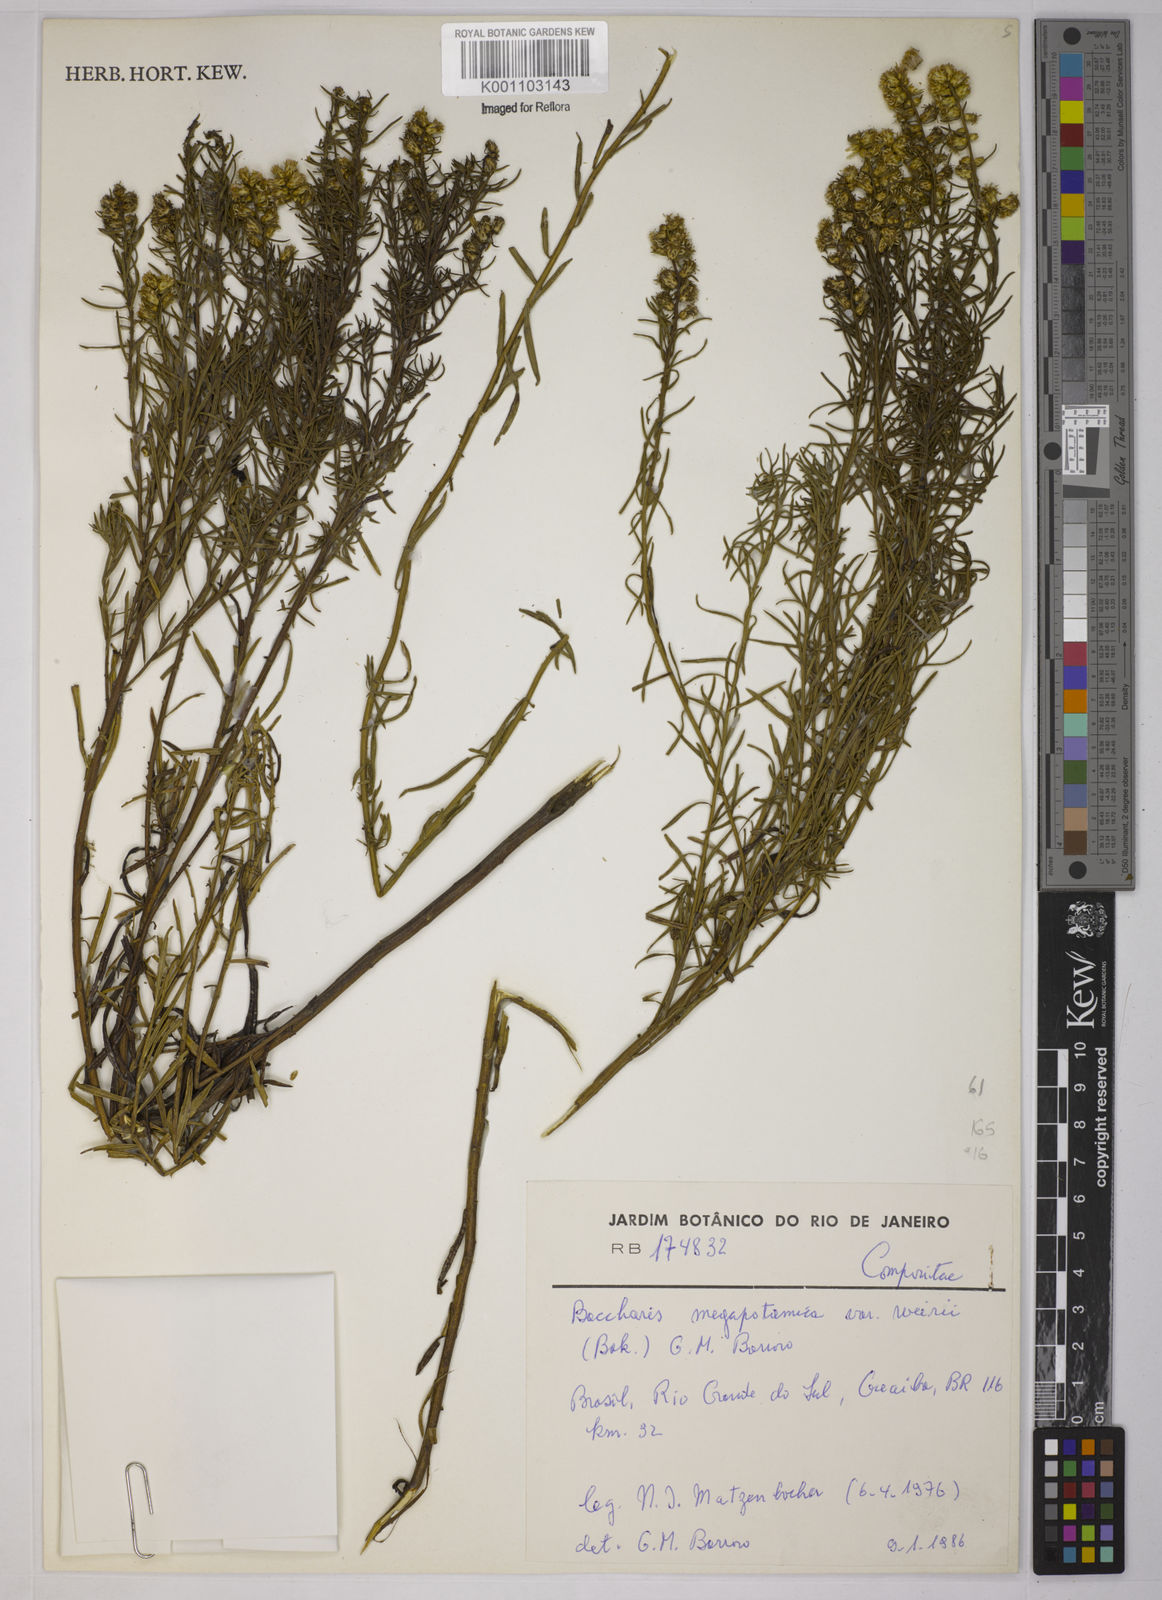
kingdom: Plantae
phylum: Tracheophyta
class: Magnoliopsida
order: Asterales
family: Asteraceae
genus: Baccharis
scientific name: Baccharis megapotamica
